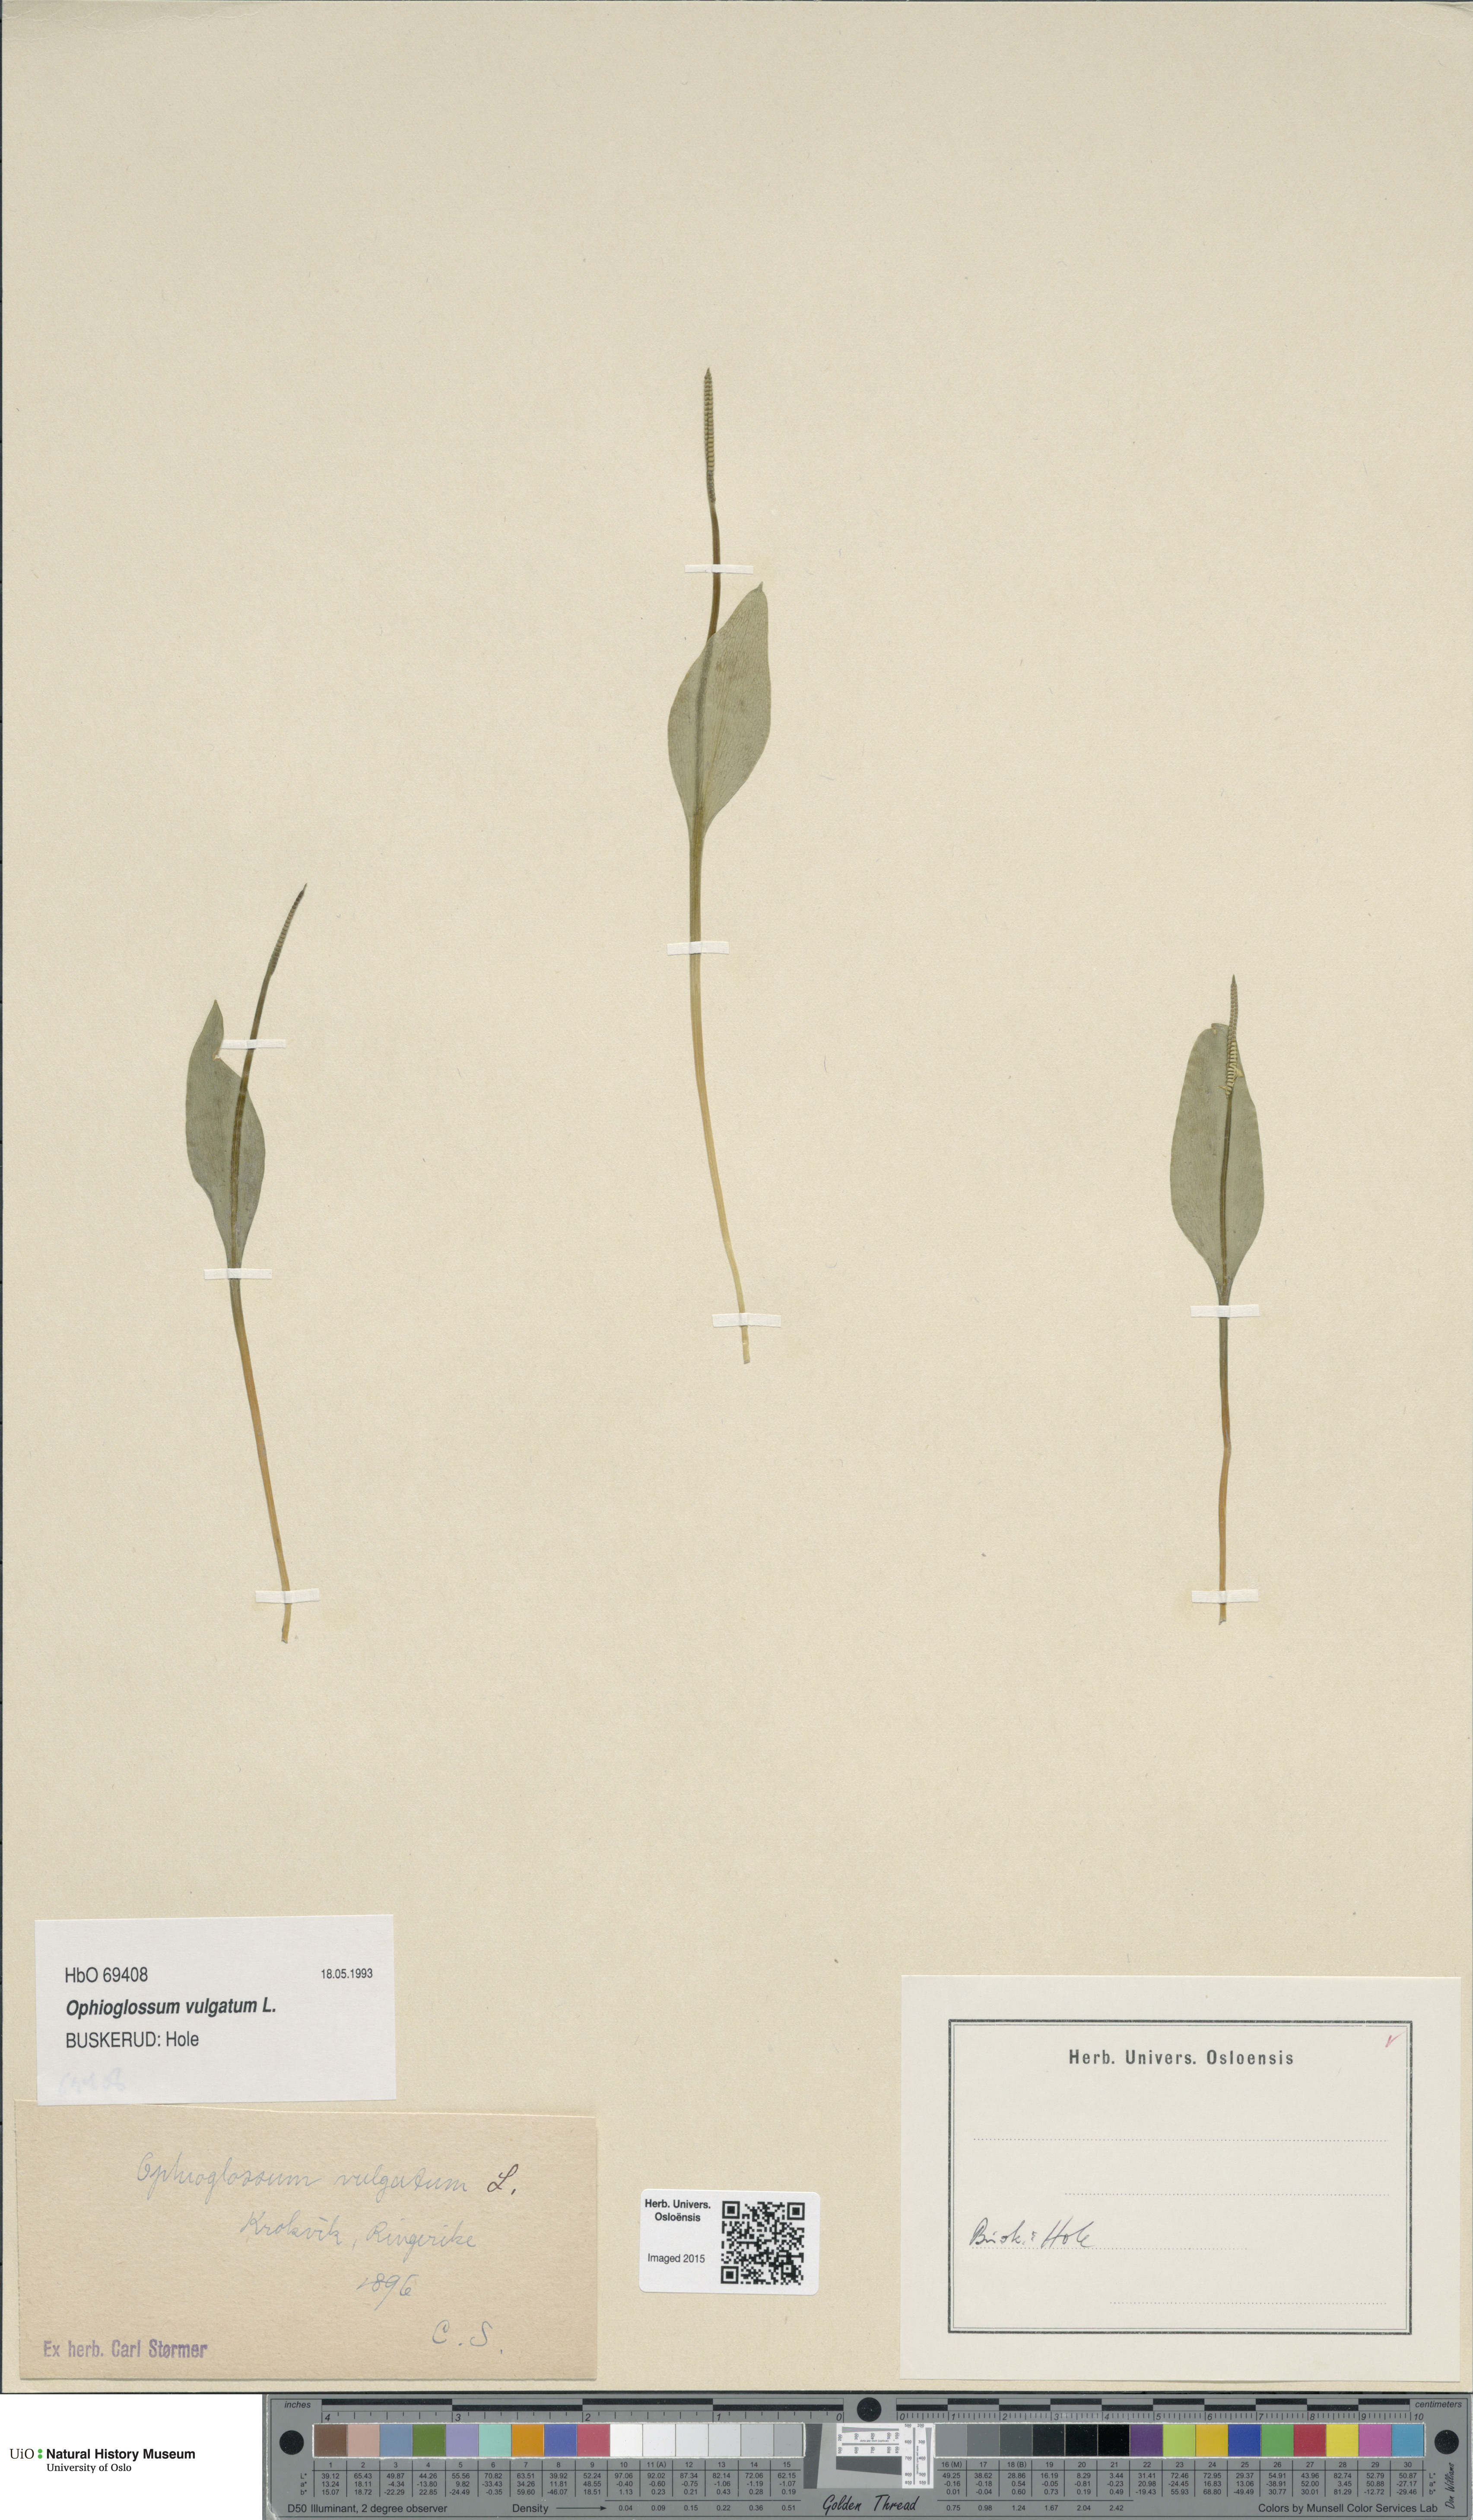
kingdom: Plantae
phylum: Tracheophyta
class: Polypodiopsida
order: Ophioglossales
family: Ophioglossaceae
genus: Ophioglossum
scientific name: Ophioglossum vulgatum
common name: Adder's-tongue
